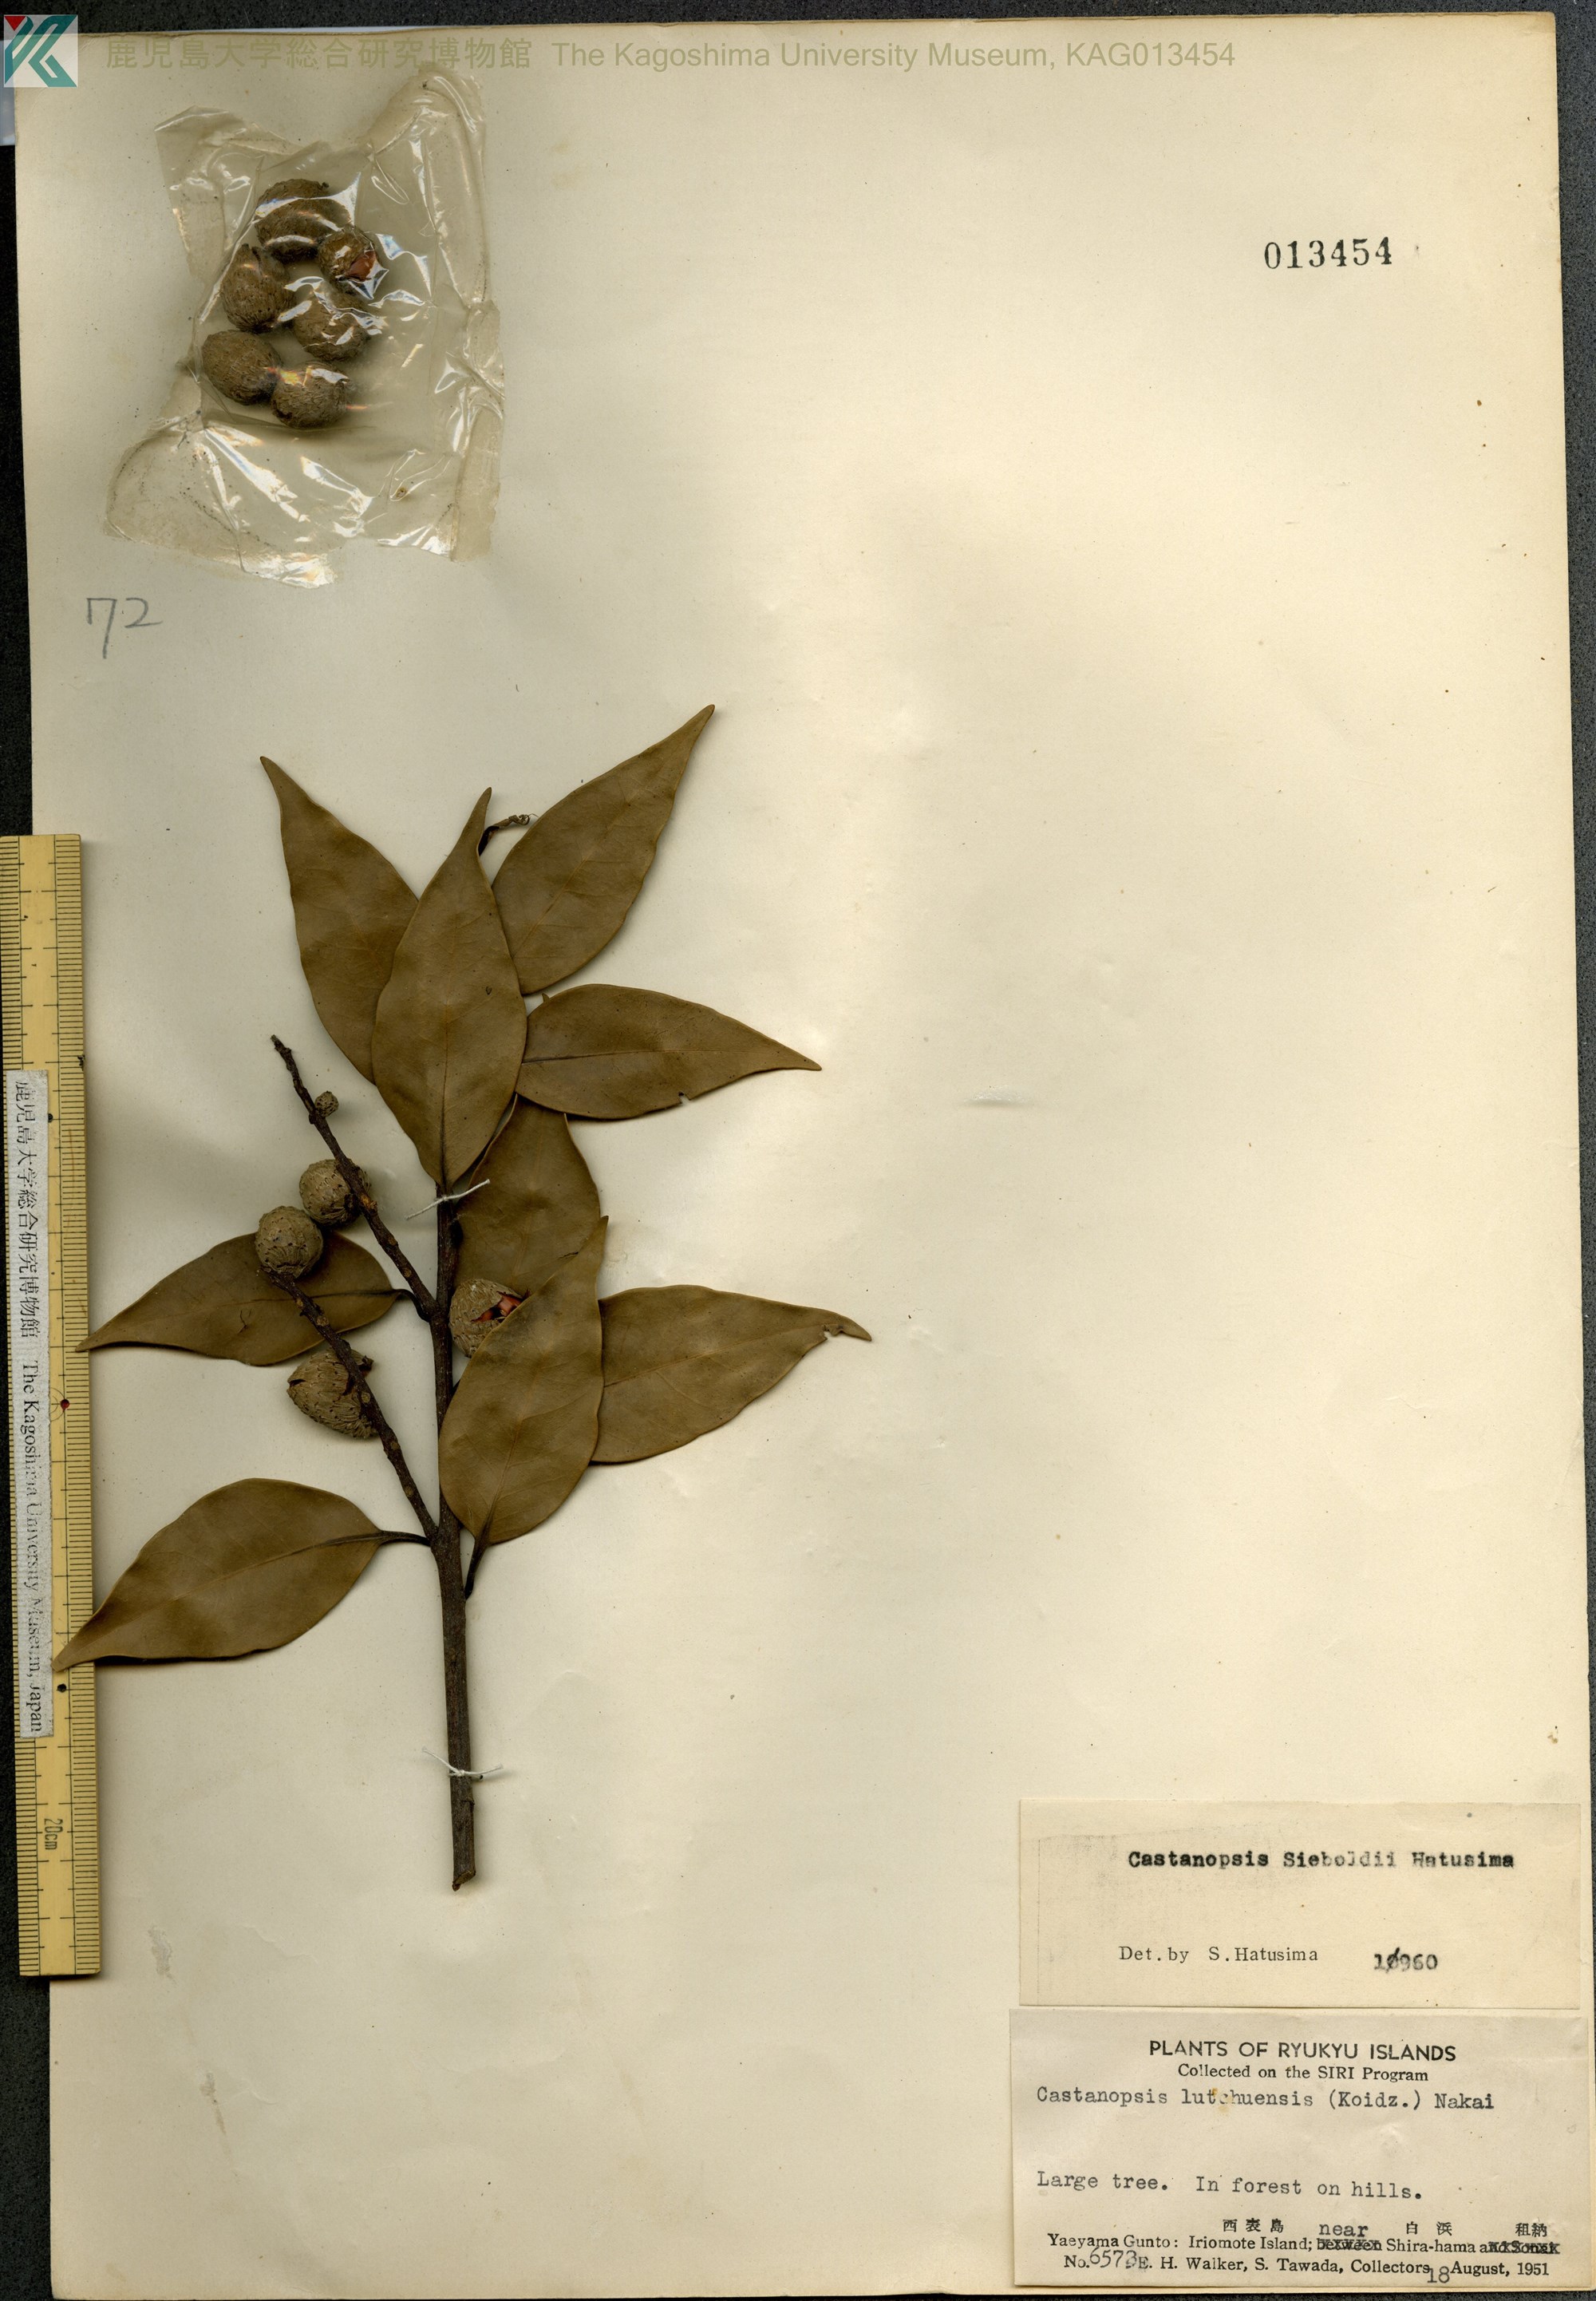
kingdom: Plantae
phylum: Tracheophyta
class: Magnoliopsida
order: Fagales
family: Fagaceae
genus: Castanopsis
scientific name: Castanopsis sieboldii
